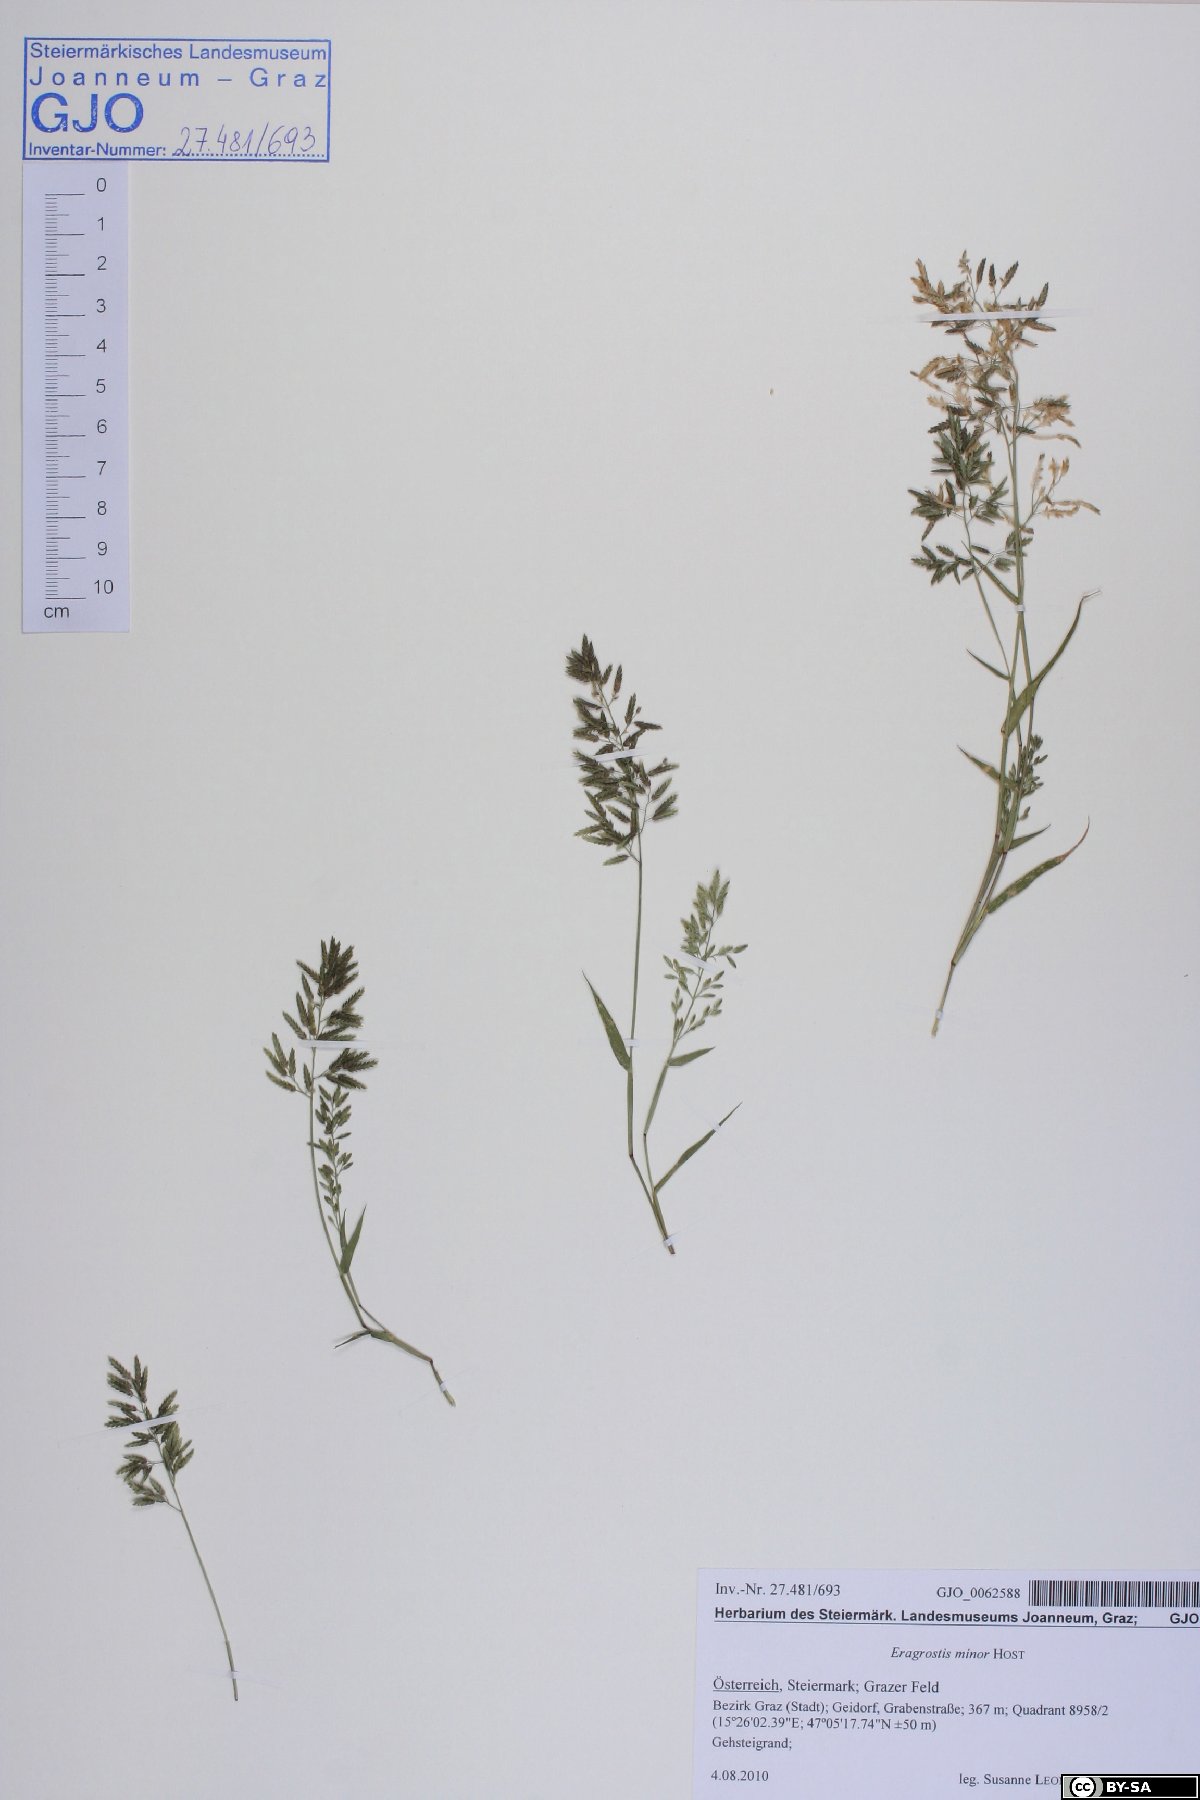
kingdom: Plantae
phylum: Tracheophyta
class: Liliopsida
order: Poales
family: Poaceae
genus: Eragrostis
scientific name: Eragrostis minor
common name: Small love-grass
